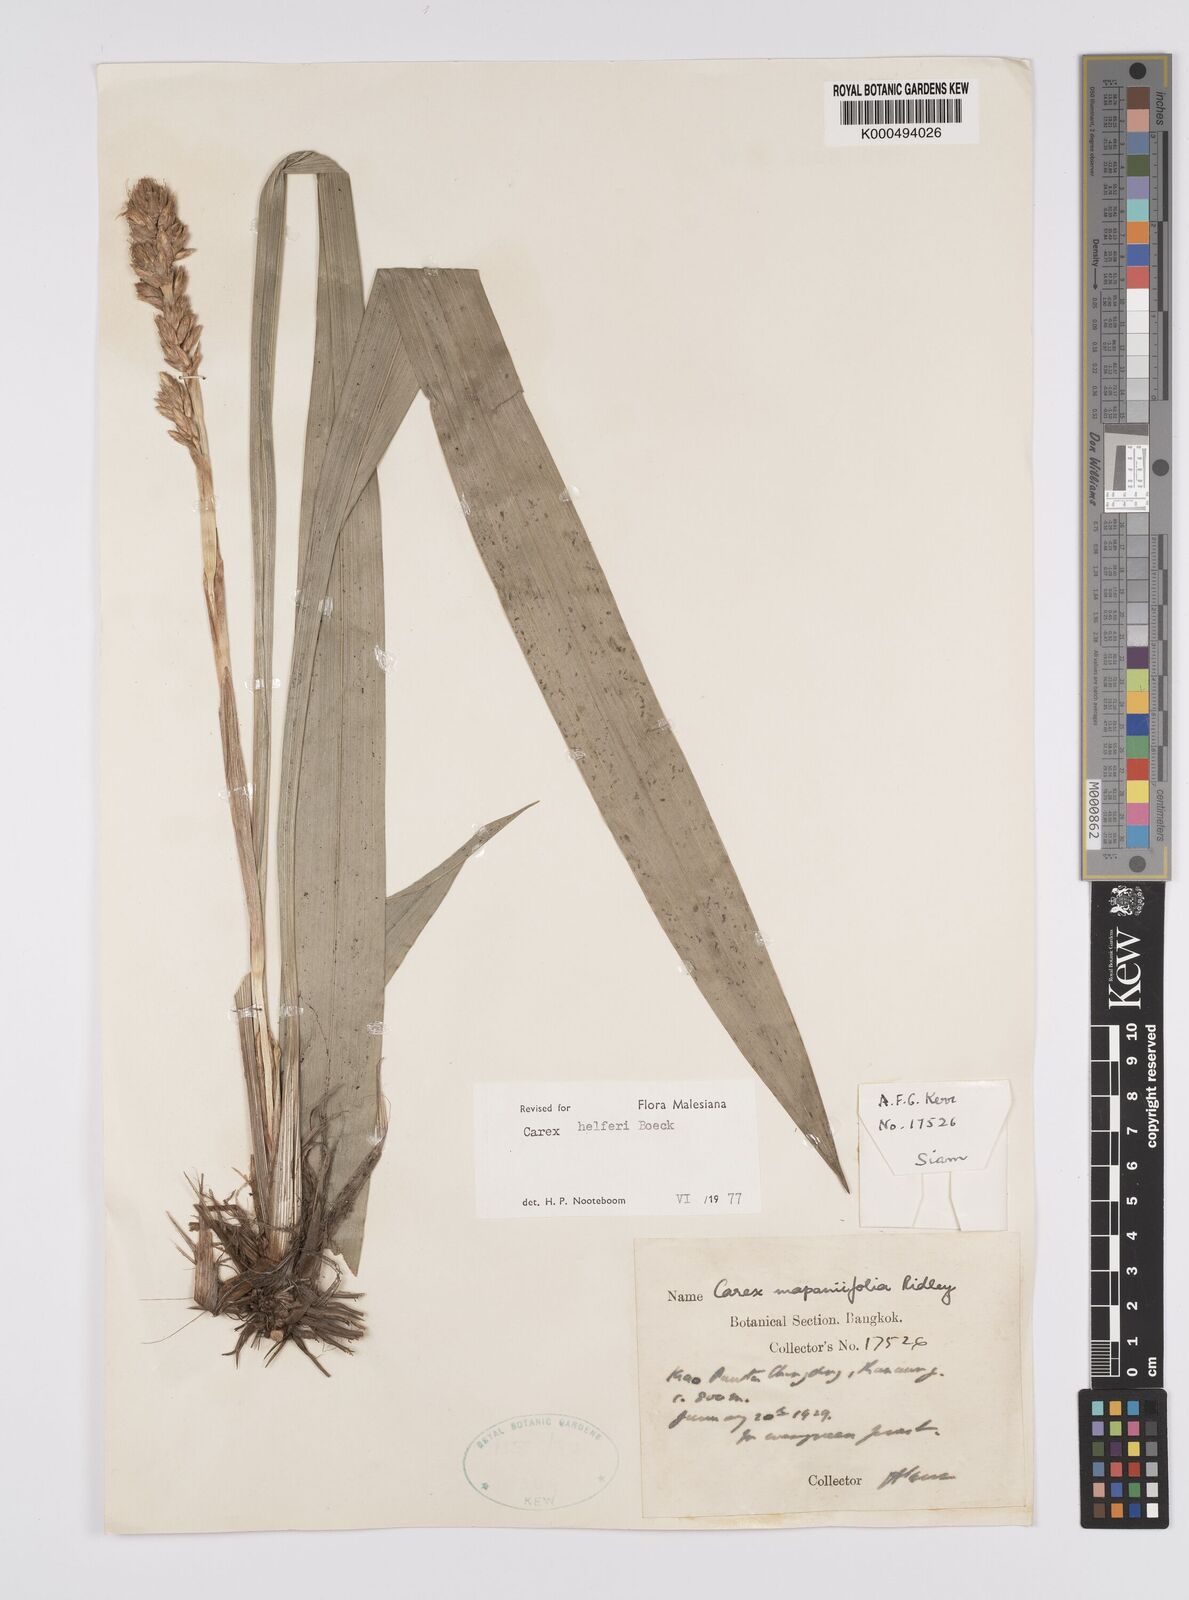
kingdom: Plantae
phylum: Tracheophyta
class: Liliopsida
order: Poales
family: Cyperaceae
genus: Carex
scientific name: Carex helferi
